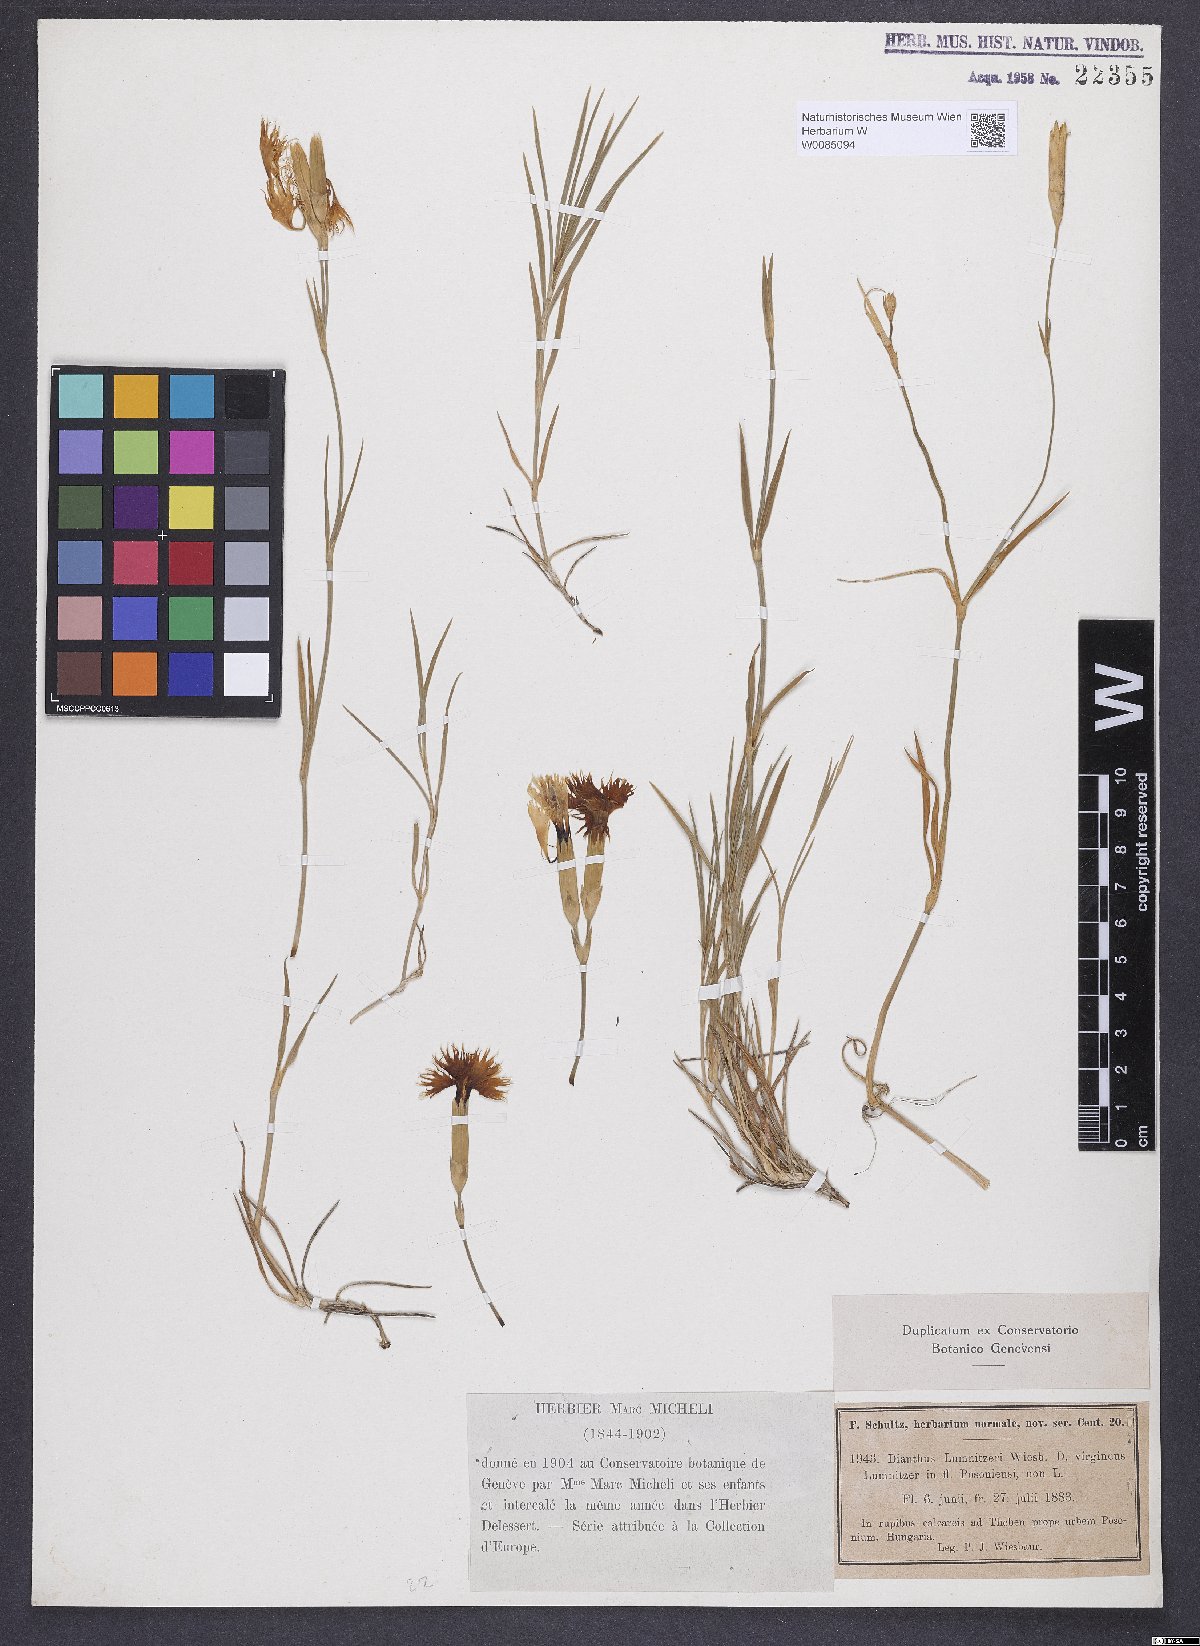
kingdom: Plantae
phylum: Tracheophyta
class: Magnoliopsida
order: Caryophyllales
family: Caryophyllaceae
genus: Dianthus
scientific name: Dianthus praecox
